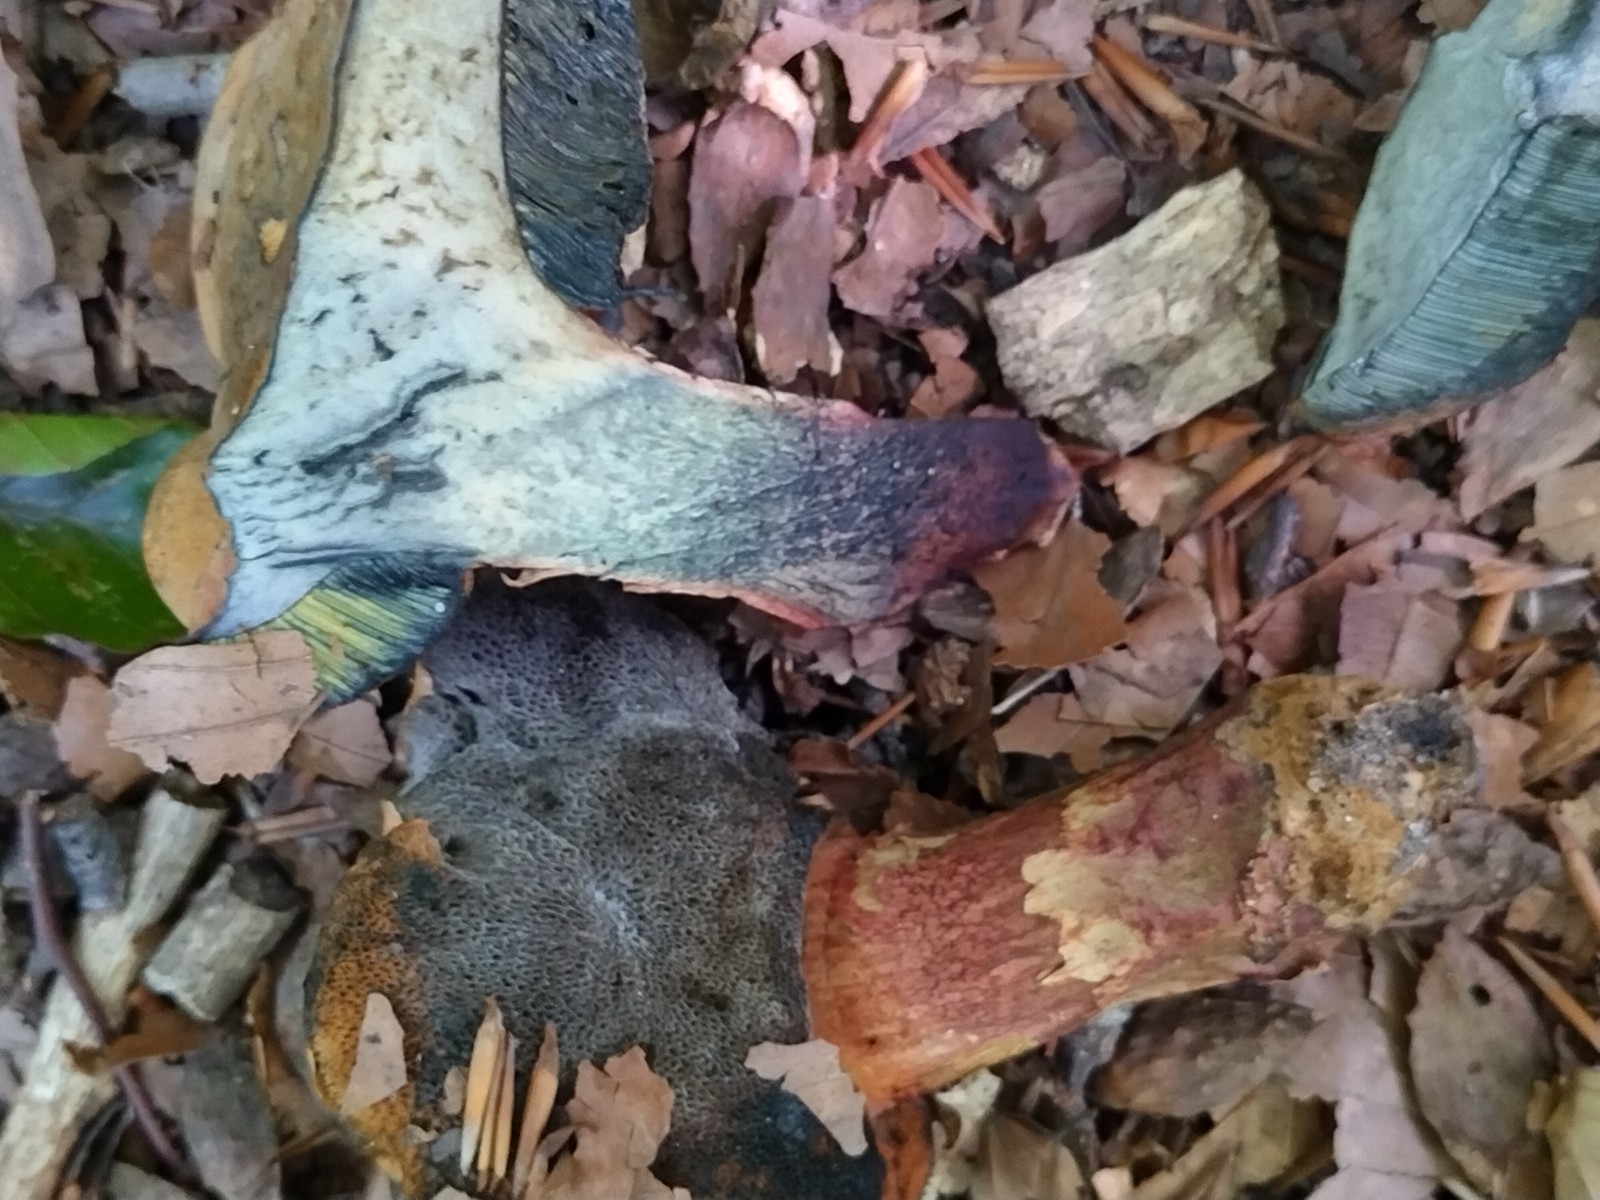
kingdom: Fungi
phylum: Basidiomycota
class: Agaricomycetes
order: Boletales
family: Boletaceae
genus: Suillellus
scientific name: Suillellus
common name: indigorørhat
